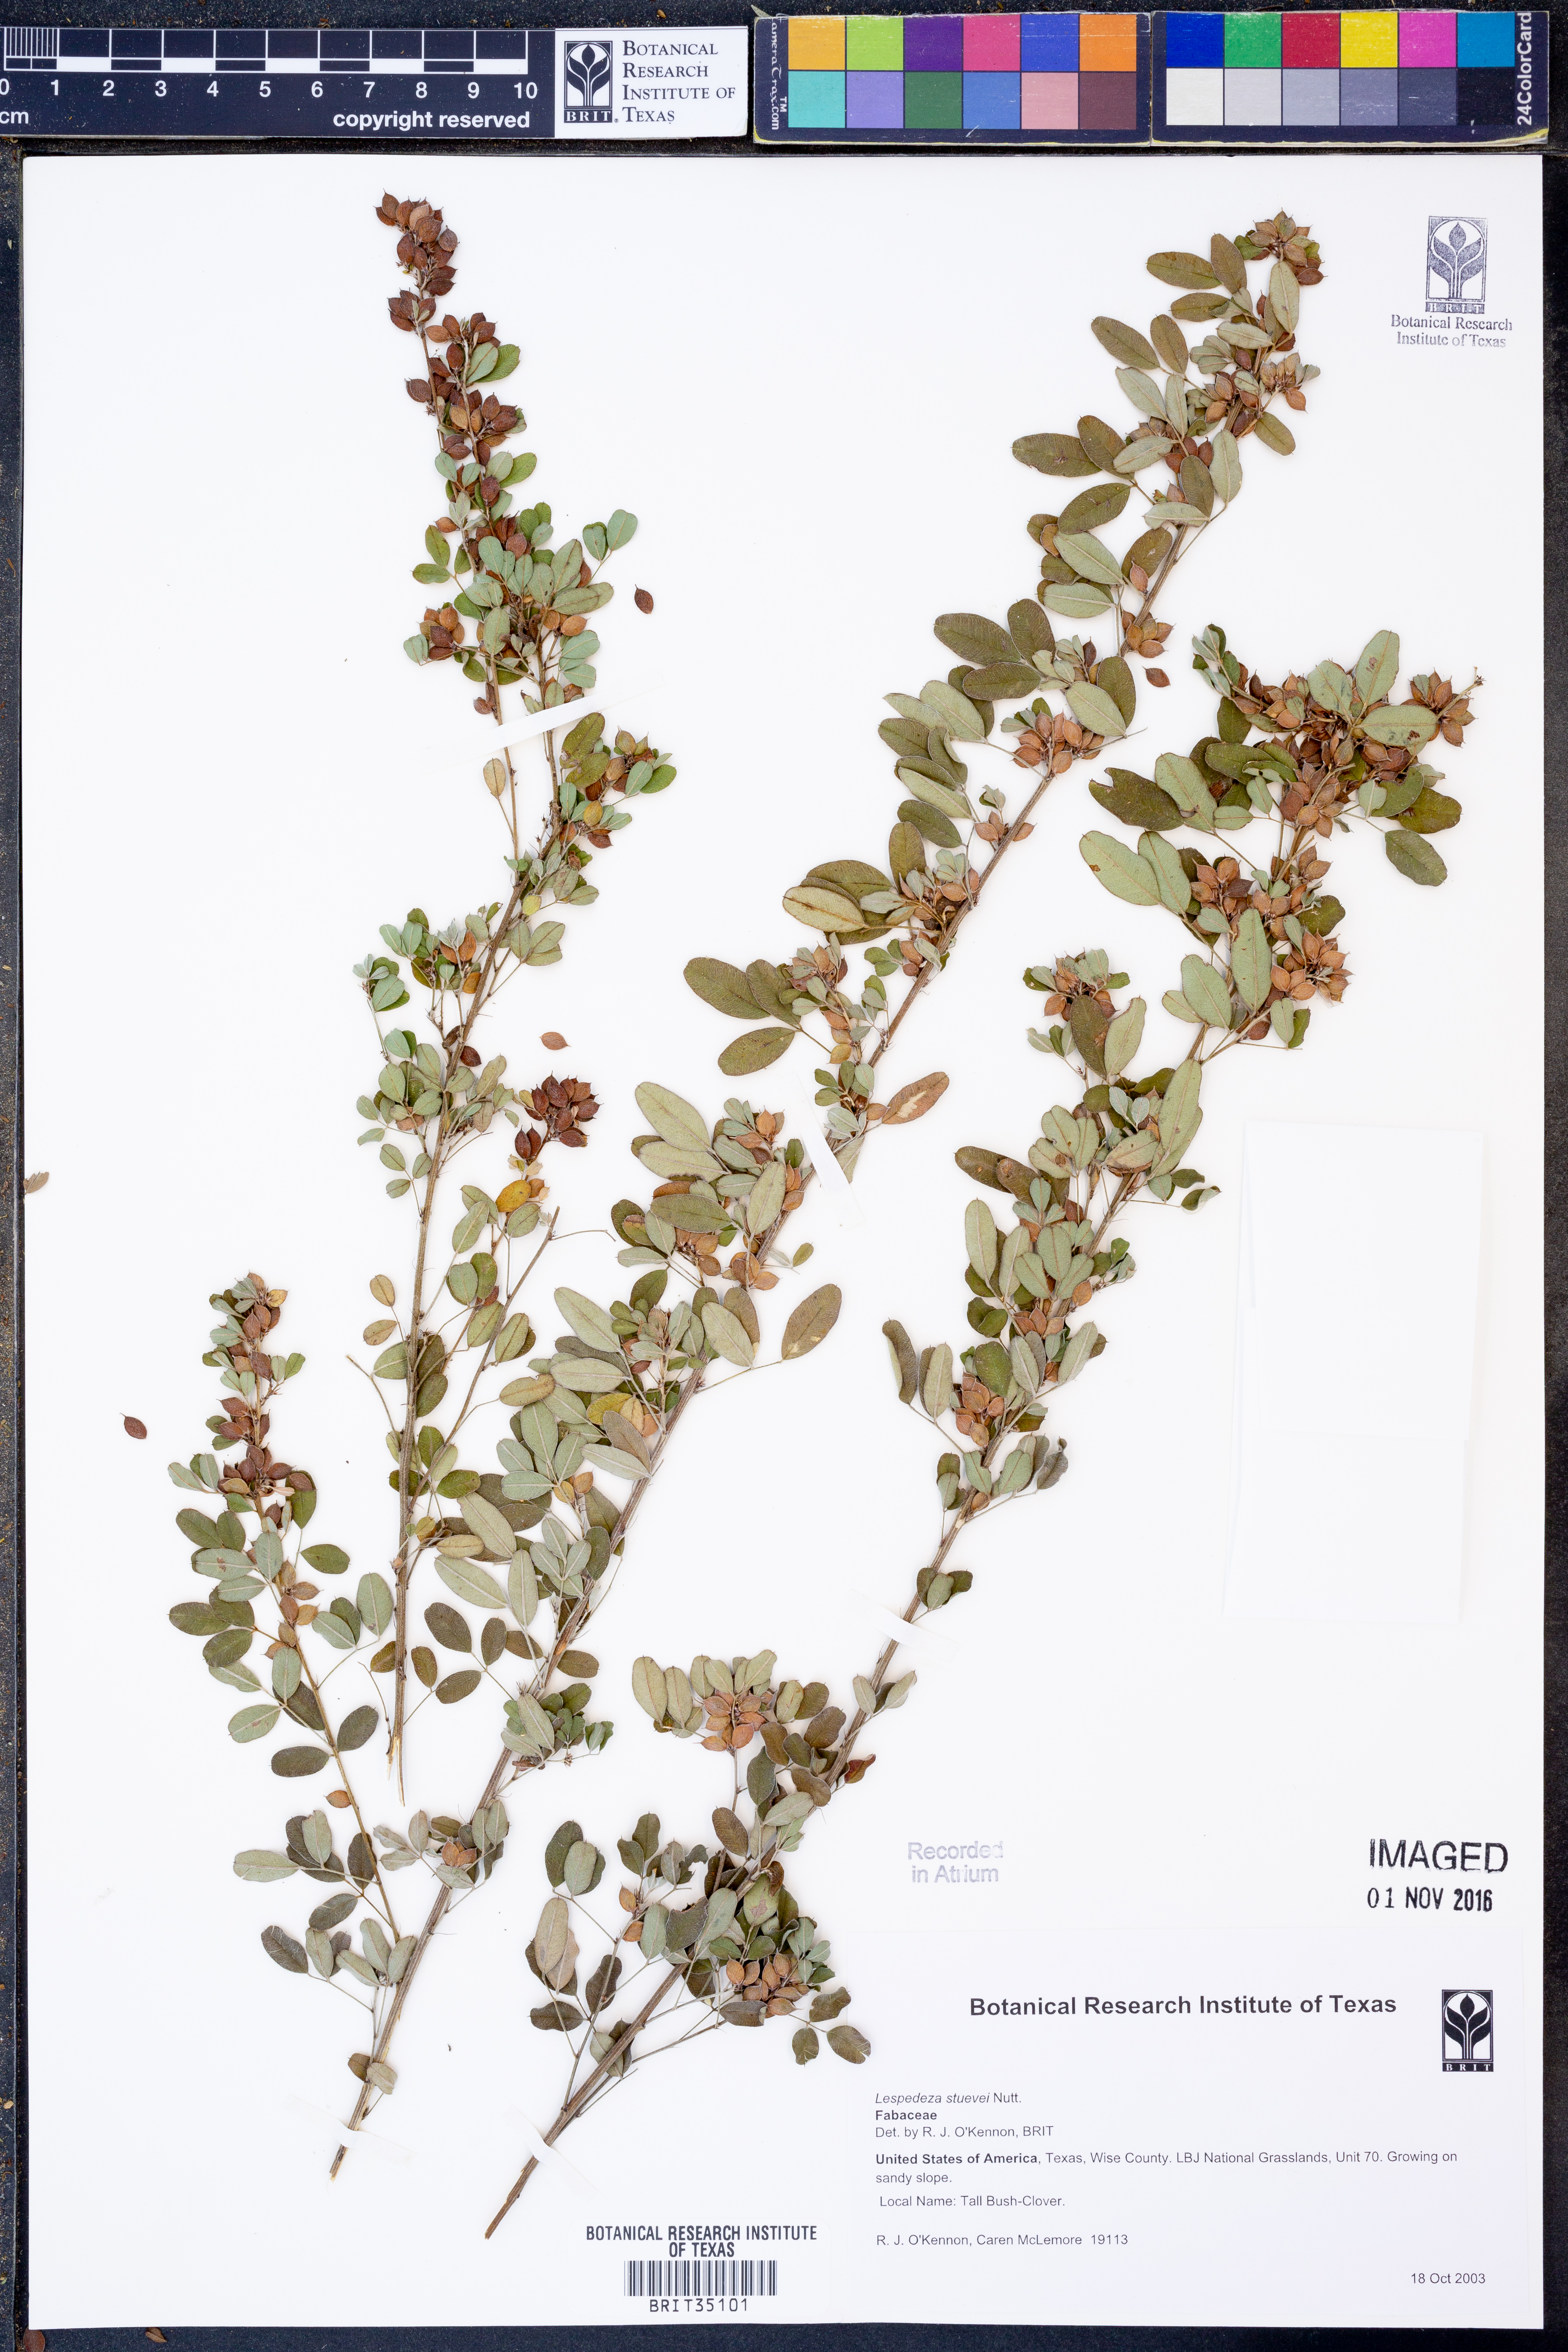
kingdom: Plantae
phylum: Tracheophyta
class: Magnoliopsida
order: Fabales
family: Fabaceae
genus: Lespedeza
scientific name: Lespedeza stuevei
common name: Tall bush-clover
